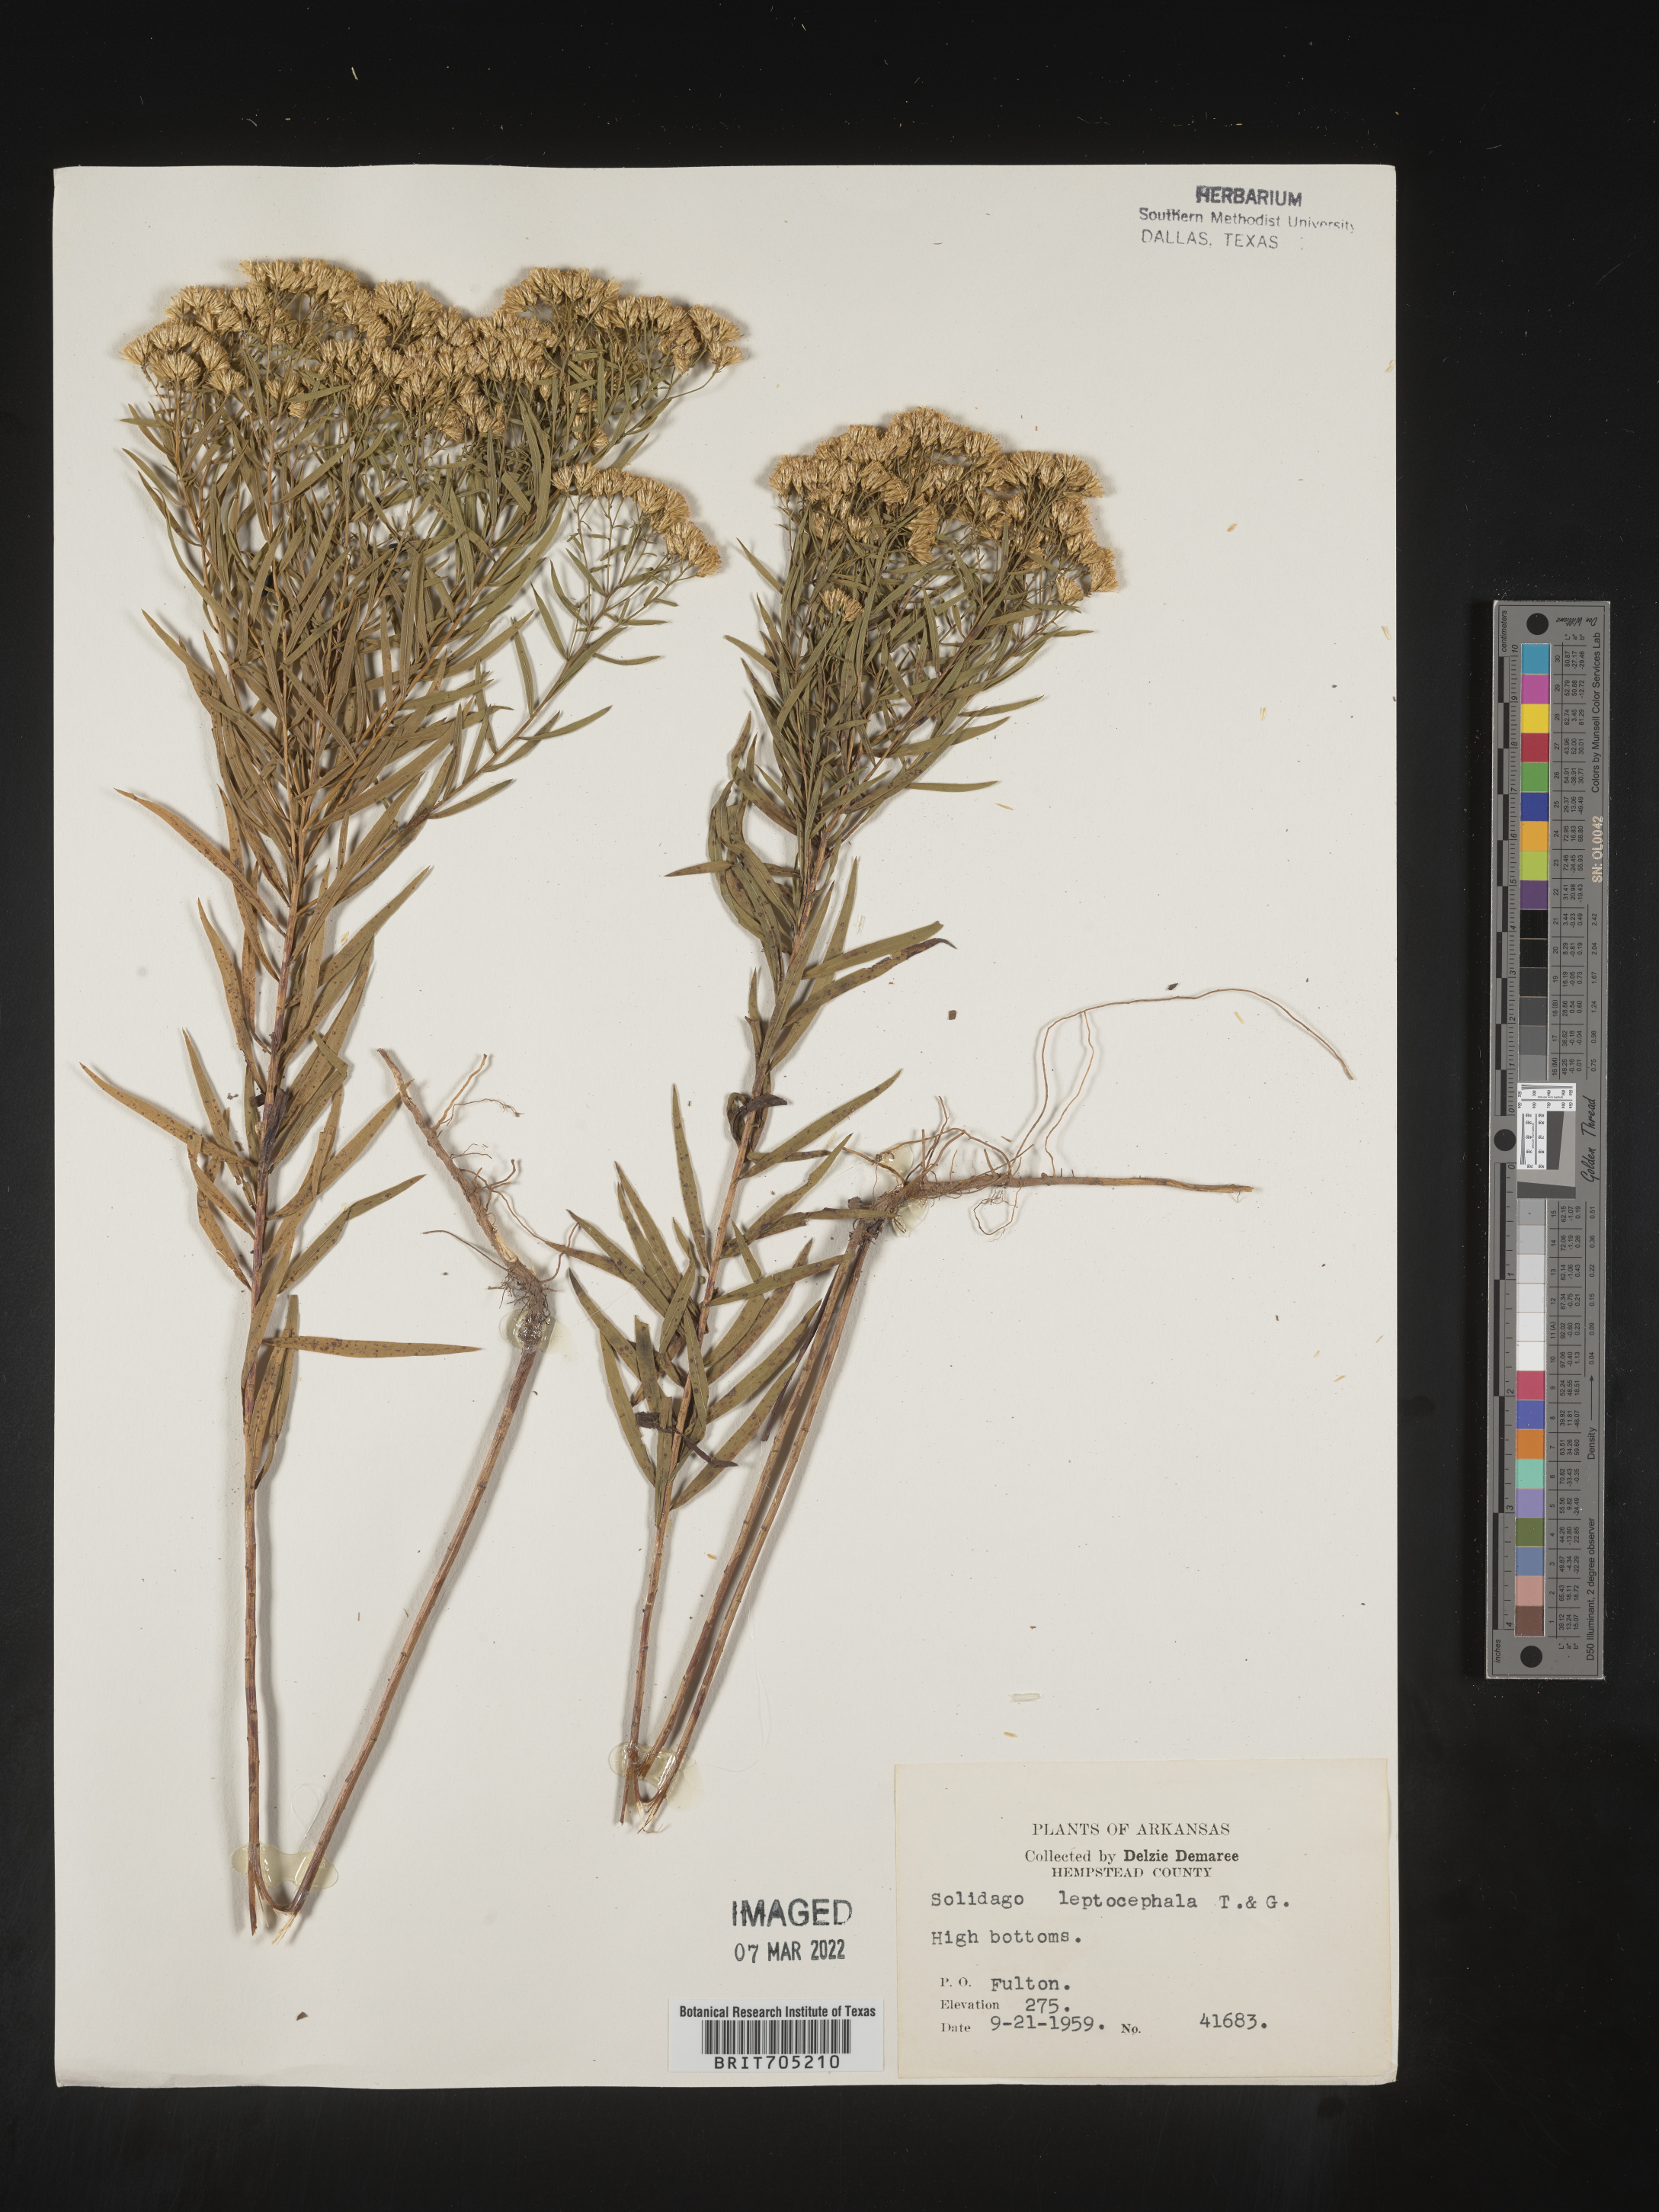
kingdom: Plantae
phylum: Tracheophyta
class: Magnoliopsida
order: Asterales
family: Asteraceae
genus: Euthamia
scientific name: Euthamia leptocephala
